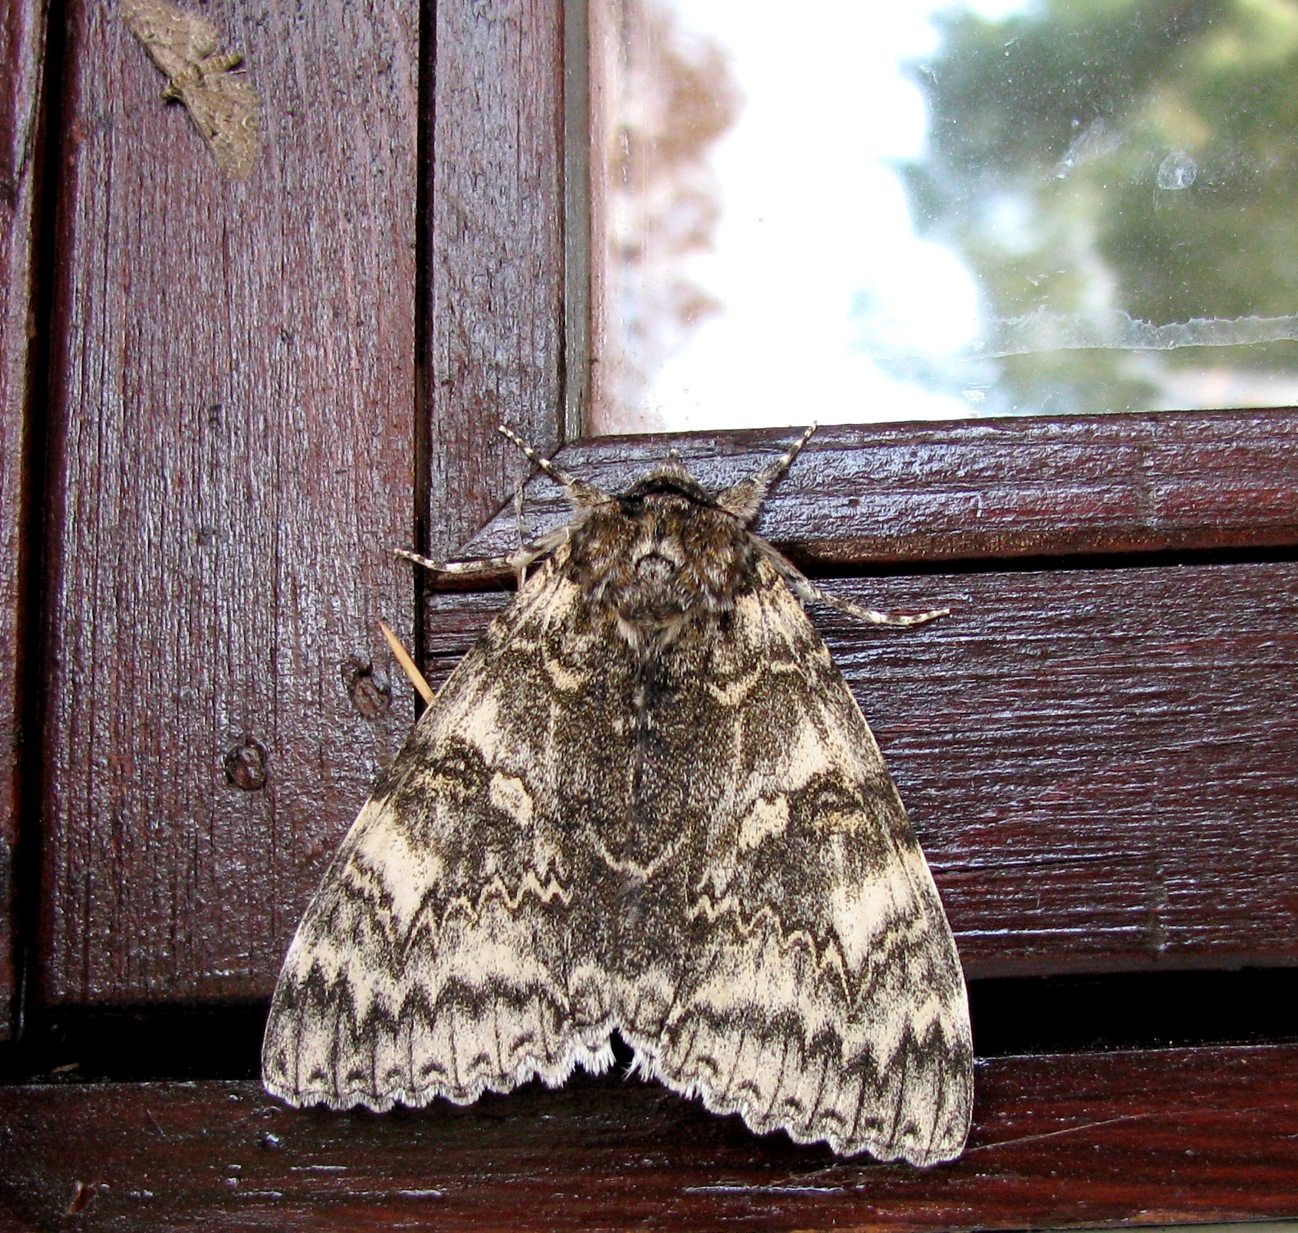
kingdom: Animalia
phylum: Arthropoda
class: Insecta
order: Lepidoptera
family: Erebidae
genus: Catocala
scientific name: Catocala fraxini
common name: Clifden nonpareil
